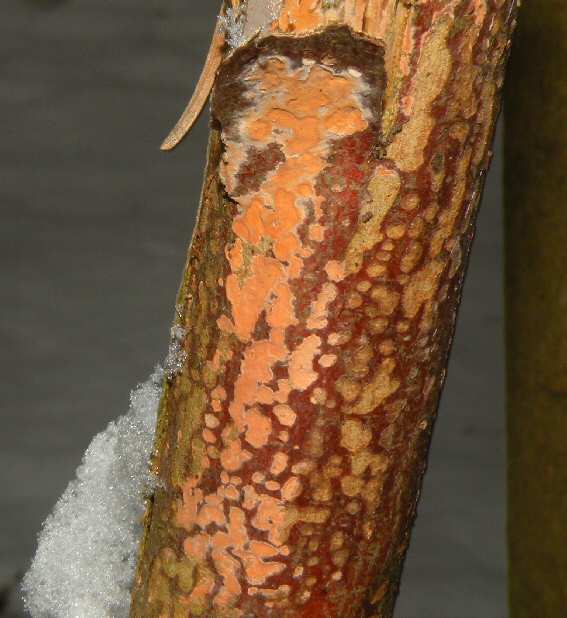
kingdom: Fungi
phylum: Basidiomycota
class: Agaricomycetes
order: Russulales
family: Peniophoraceae
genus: Peniophora
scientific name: Peniophora incarnata
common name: laksefarvet voksskind
